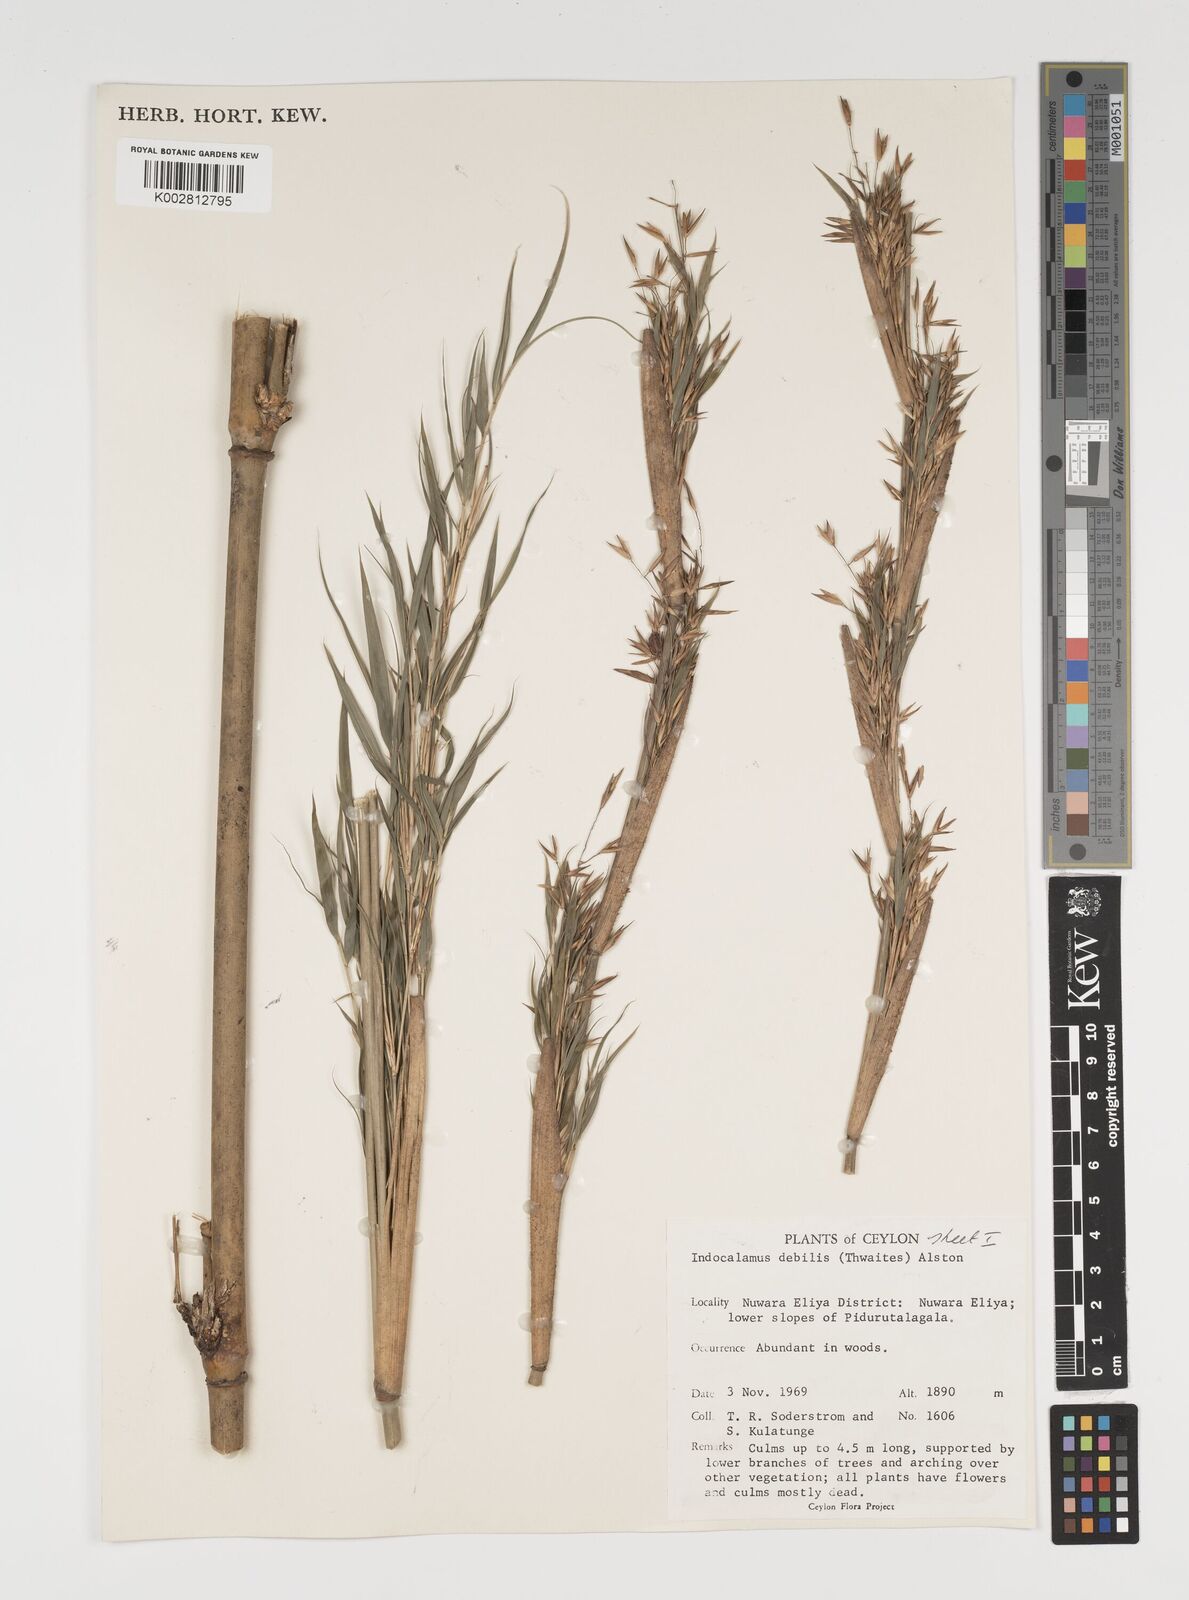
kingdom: Plantae
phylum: Tracheophyta
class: Liliopsida
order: Poales
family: Poaceae
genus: Kuruna
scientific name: Kuruna debilis
